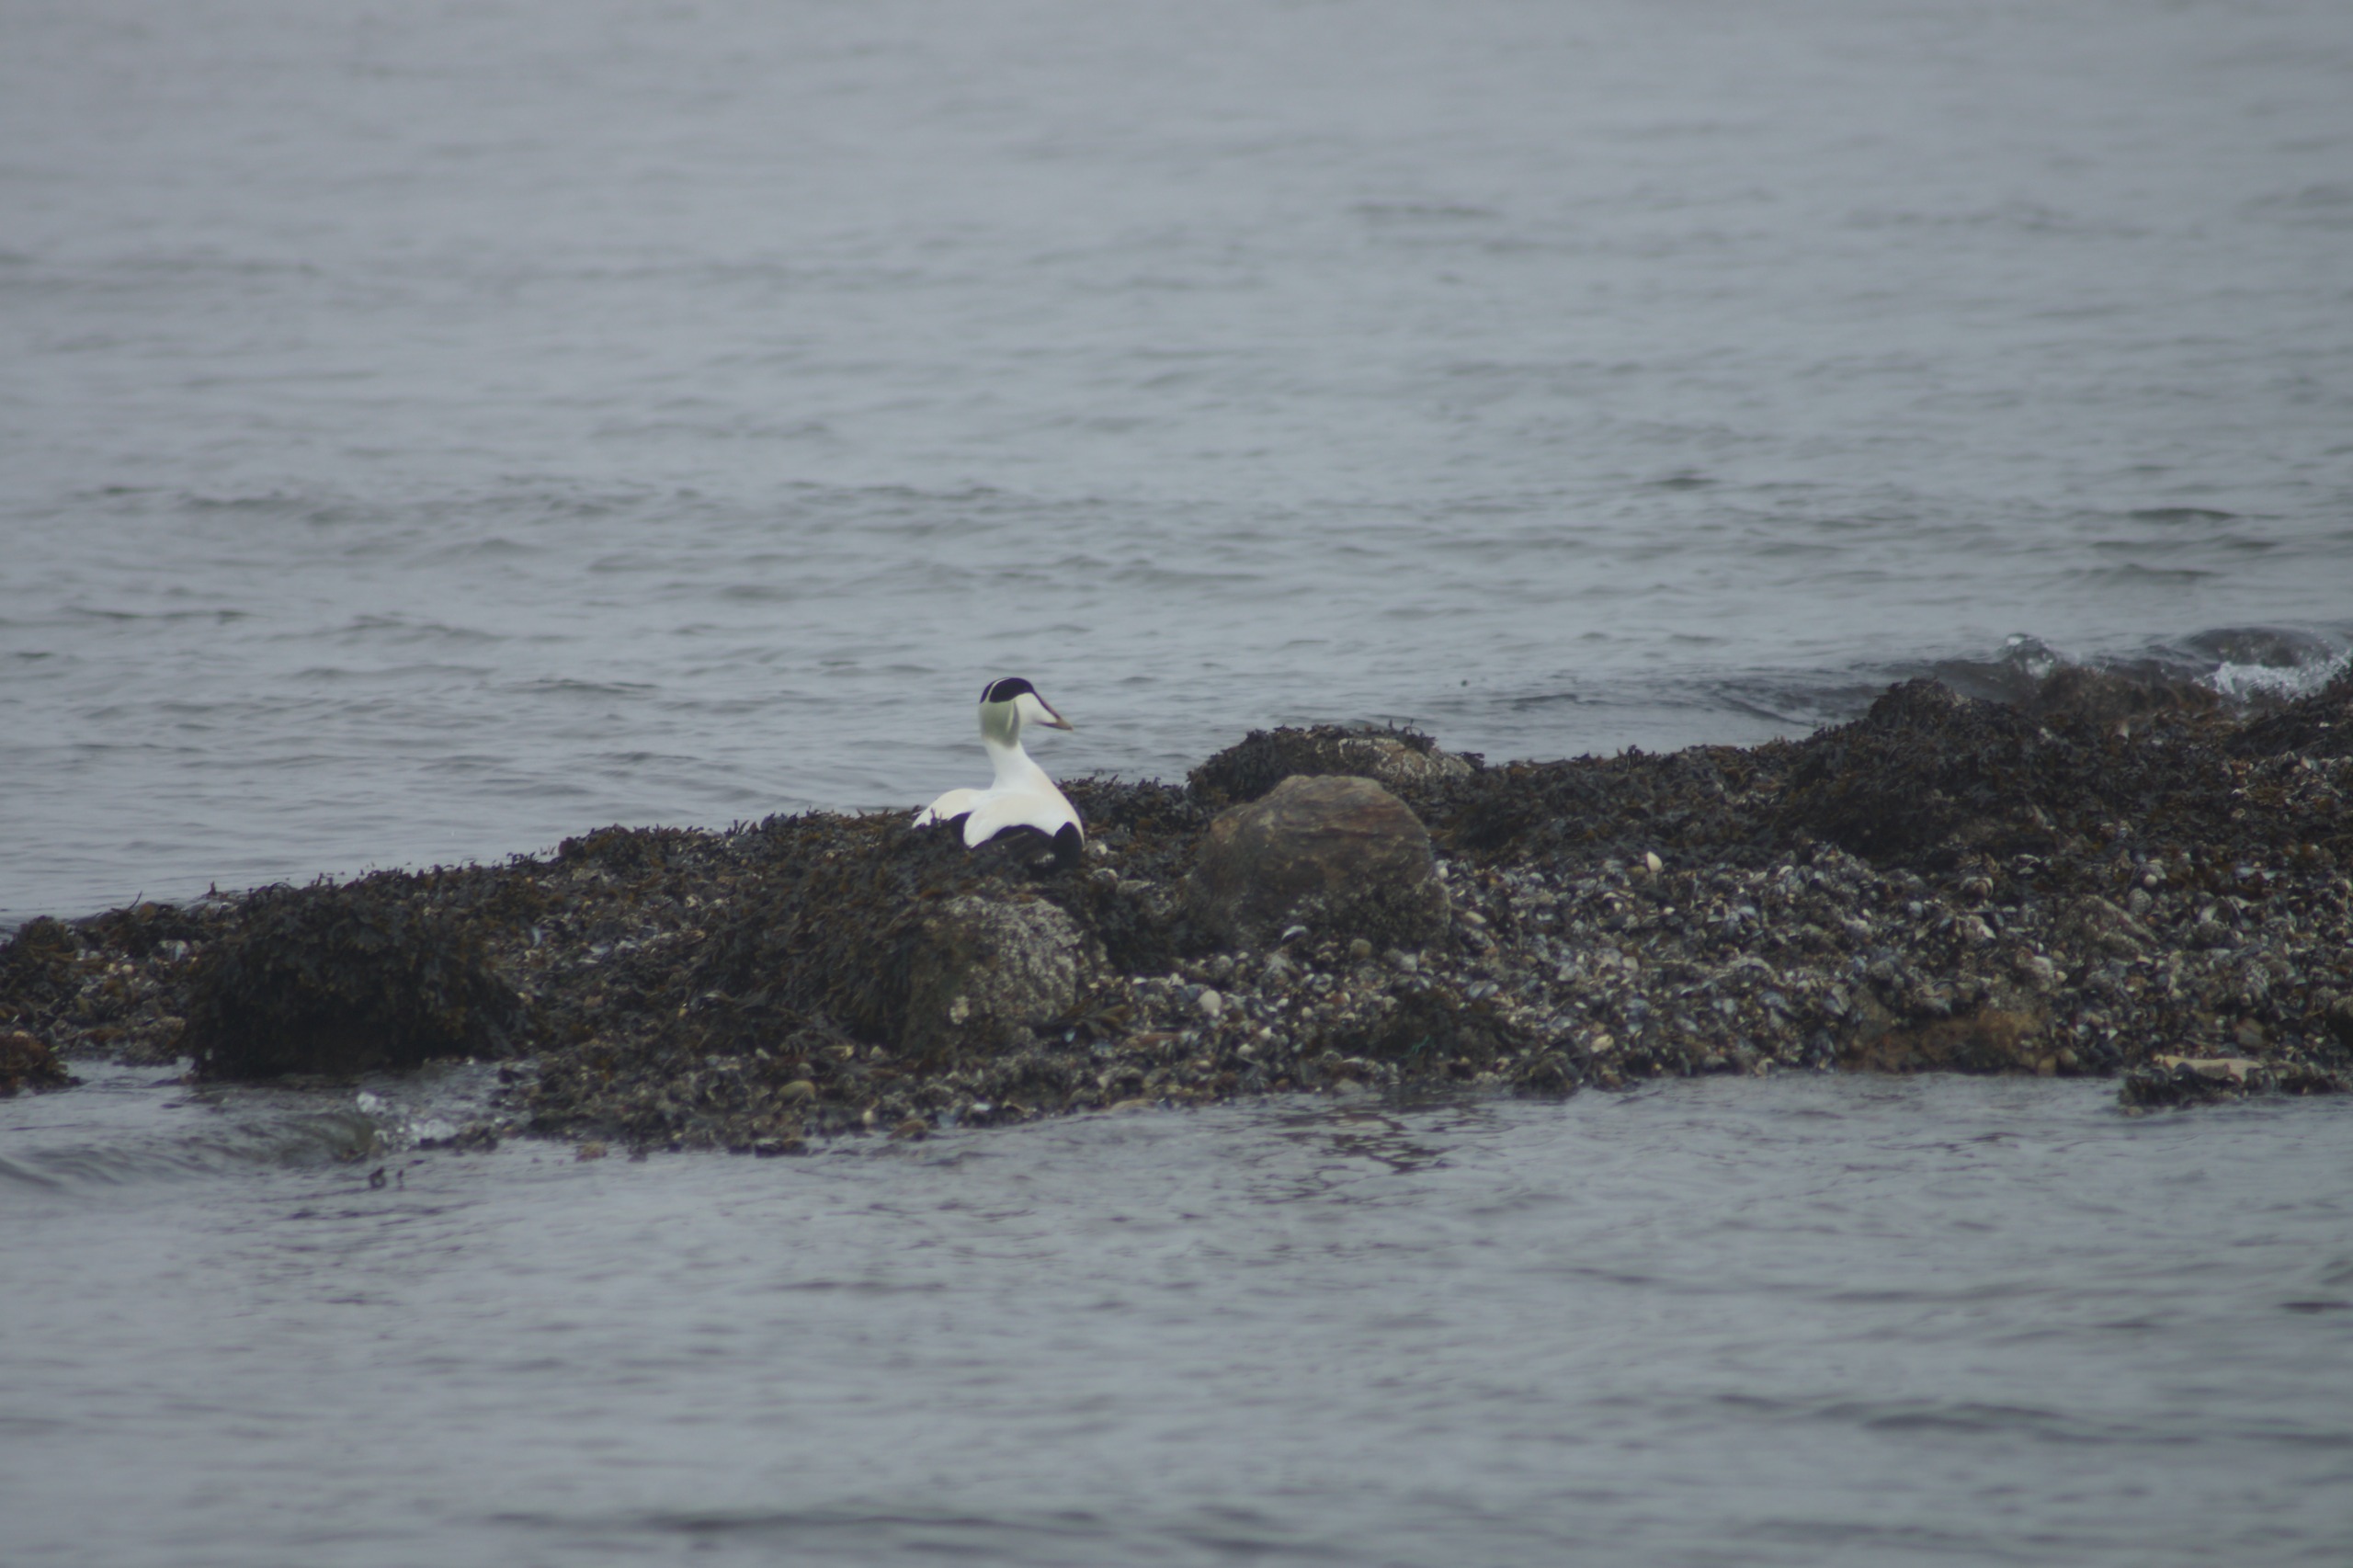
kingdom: Animalia
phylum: Chordata
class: Aves
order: Anseriformes
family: Anatidae
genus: Somateria
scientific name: Somateria mollissima
